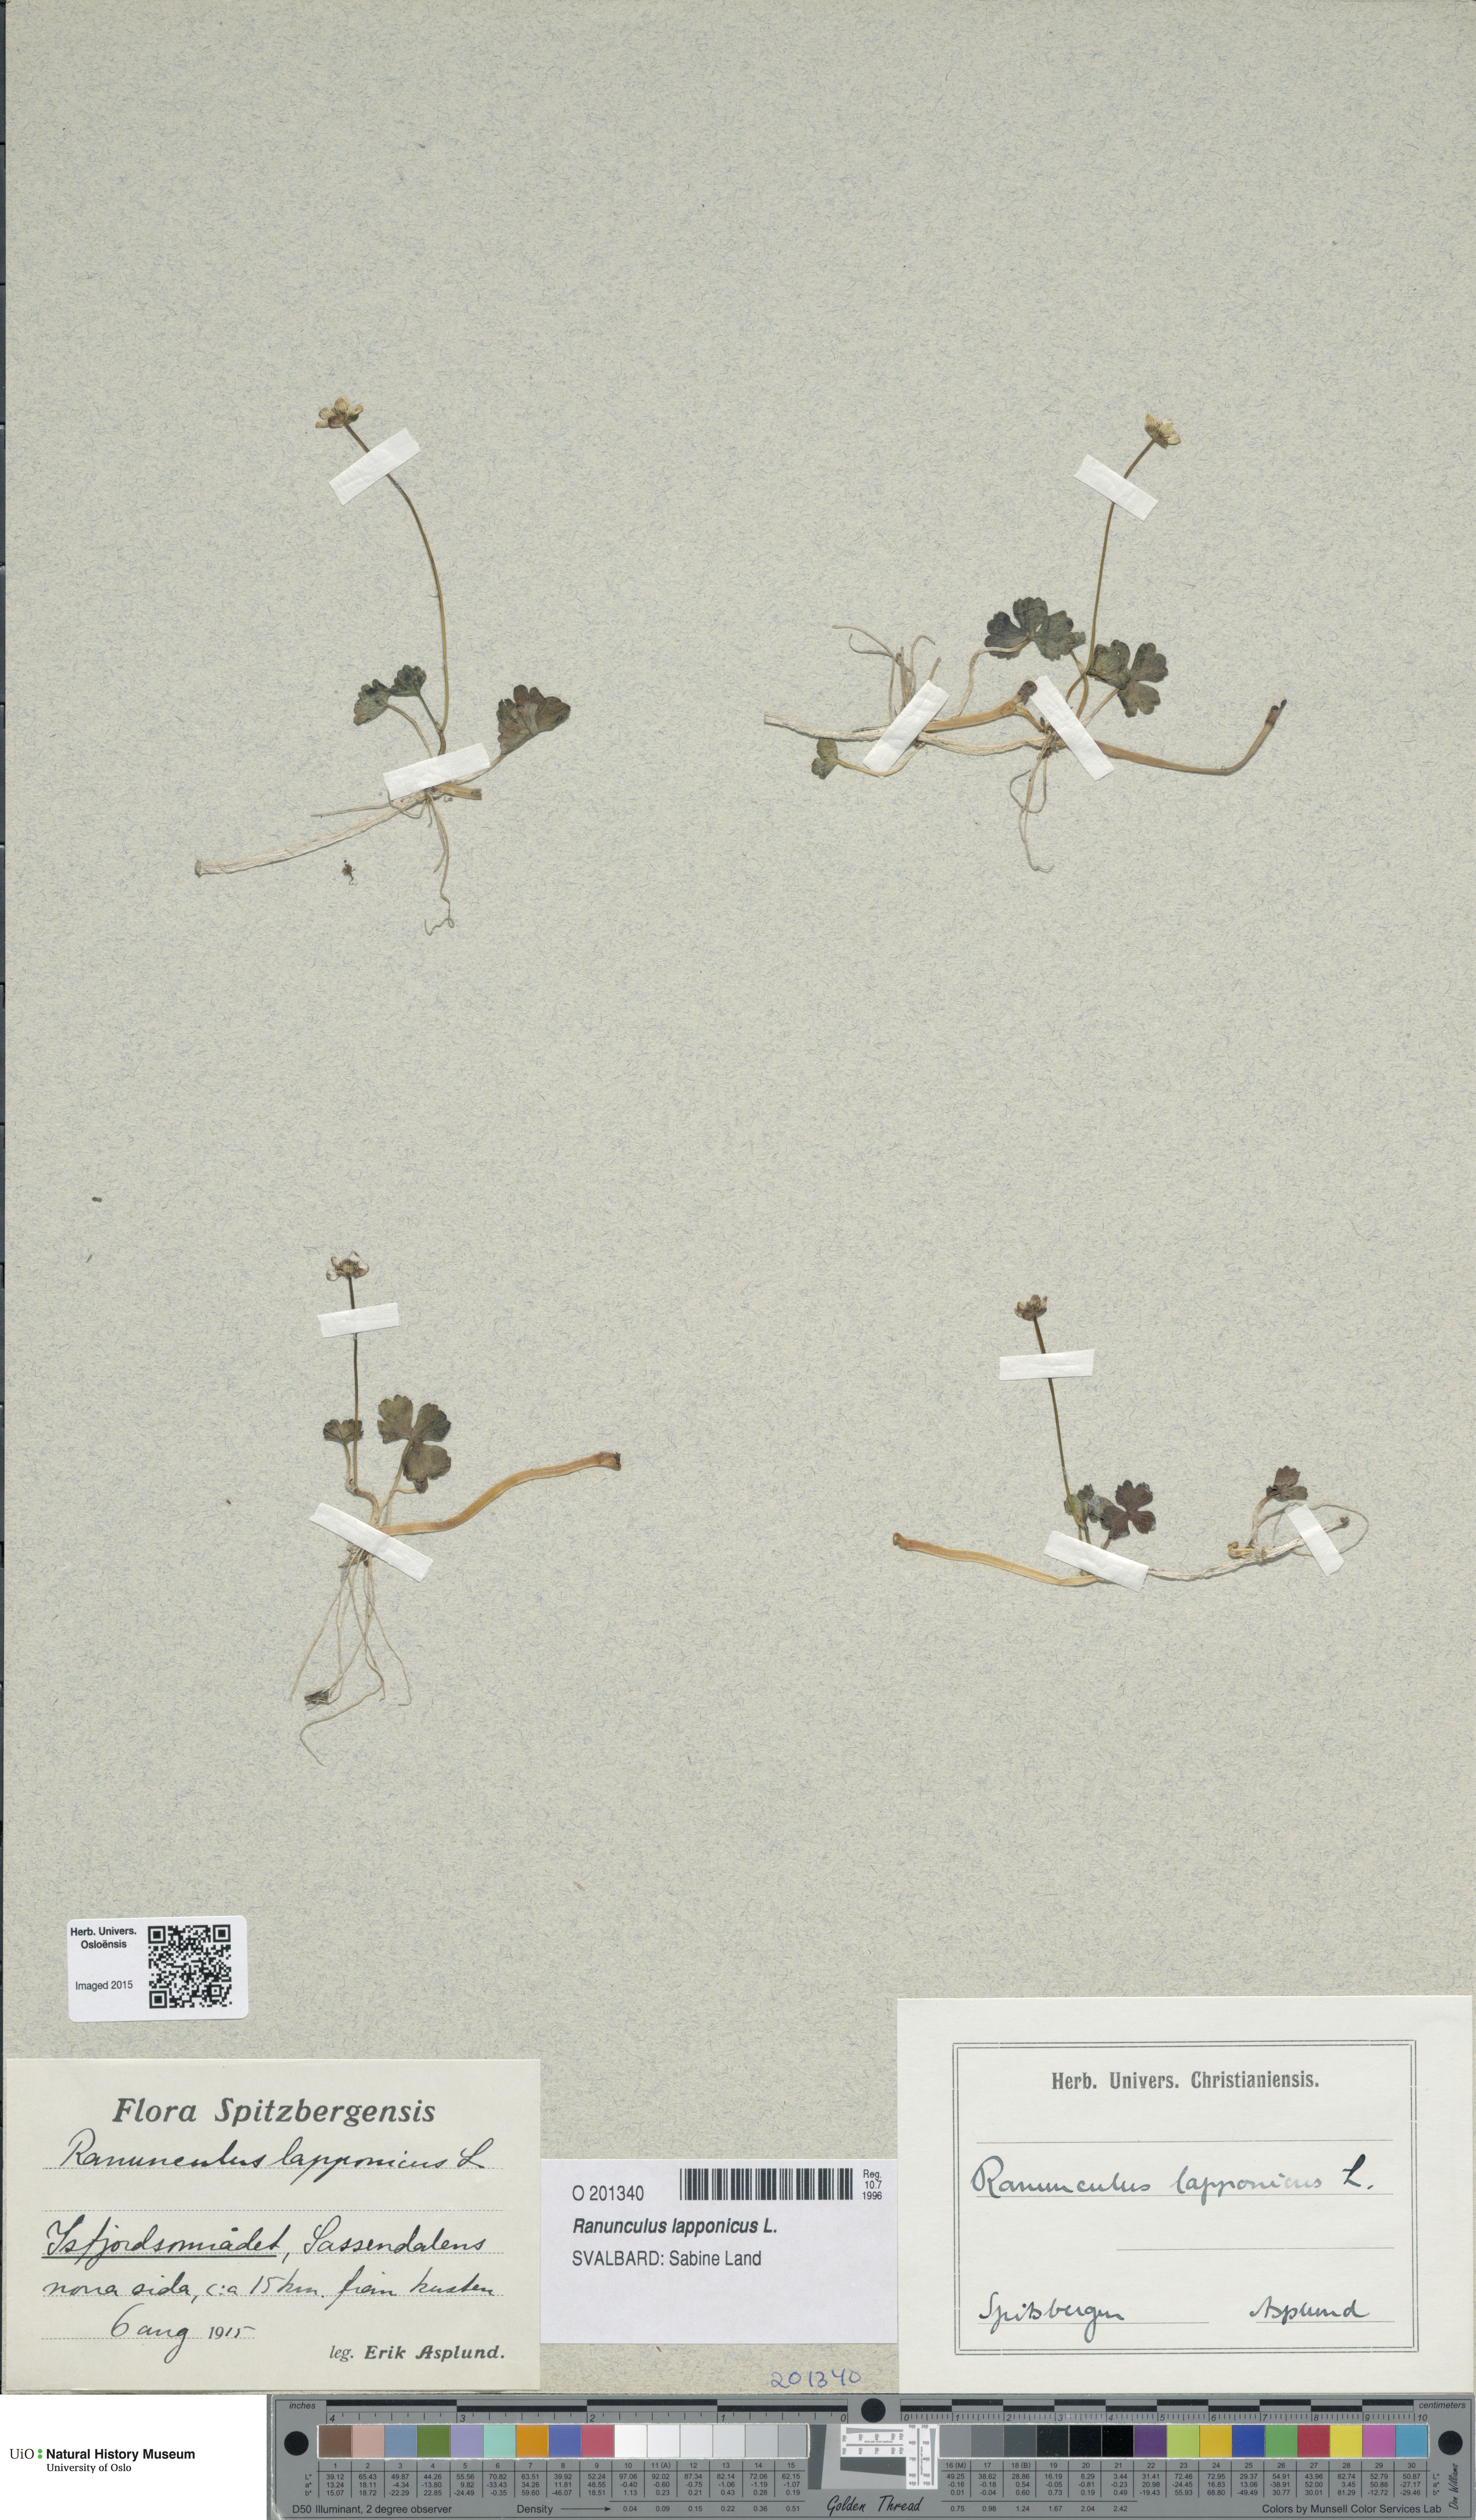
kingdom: Plantae
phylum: Tracheophyta
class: Magnoliopsida
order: Ranunculales
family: Ranunculaceae
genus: Coptidium
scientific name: Coptidium lapponicum
